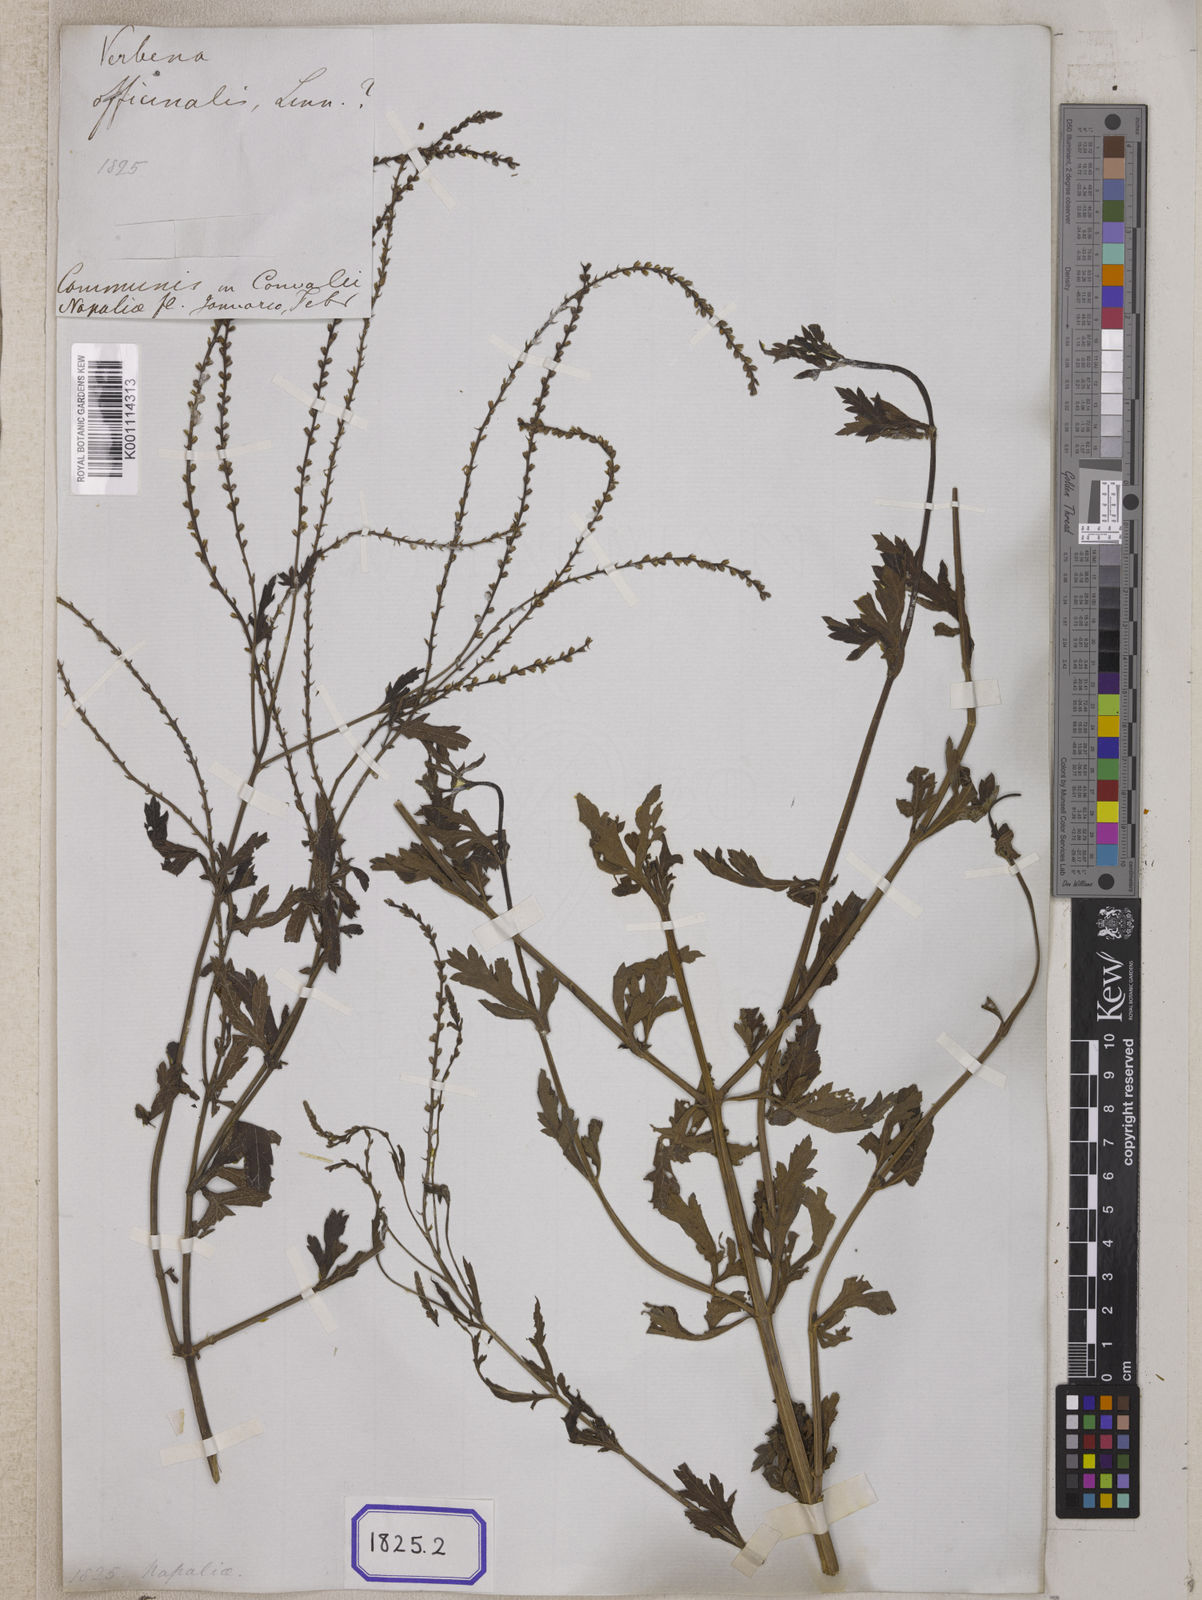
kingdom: Plantae
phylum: Tracheophyta
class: Magnoliopsida
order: Lamiales
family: Verbenaceae
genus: Verbena
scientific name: Verbena officinalis
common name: Vervain
